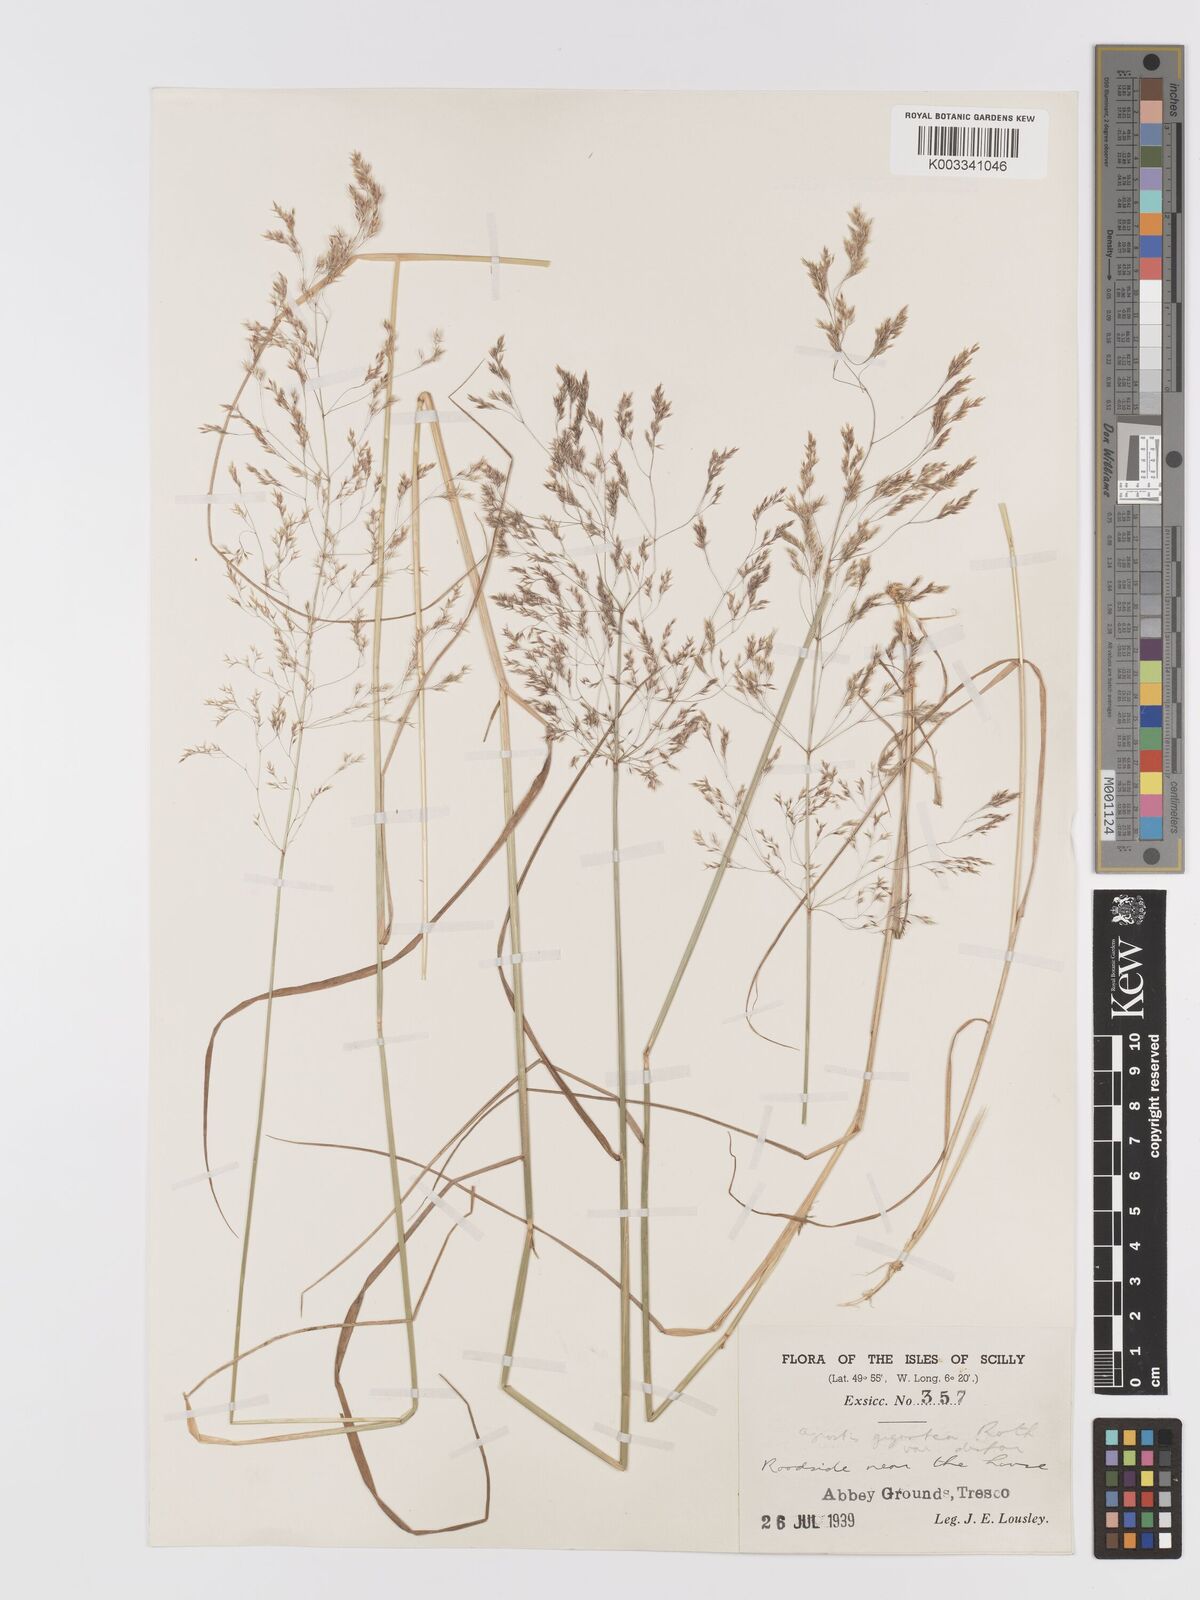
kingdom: Plantae
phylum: Tracheophyta
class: Liliopsida
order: Poales
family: Poaceae
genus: Agrostis
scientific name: Agrostis gigantea
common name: Black bent
